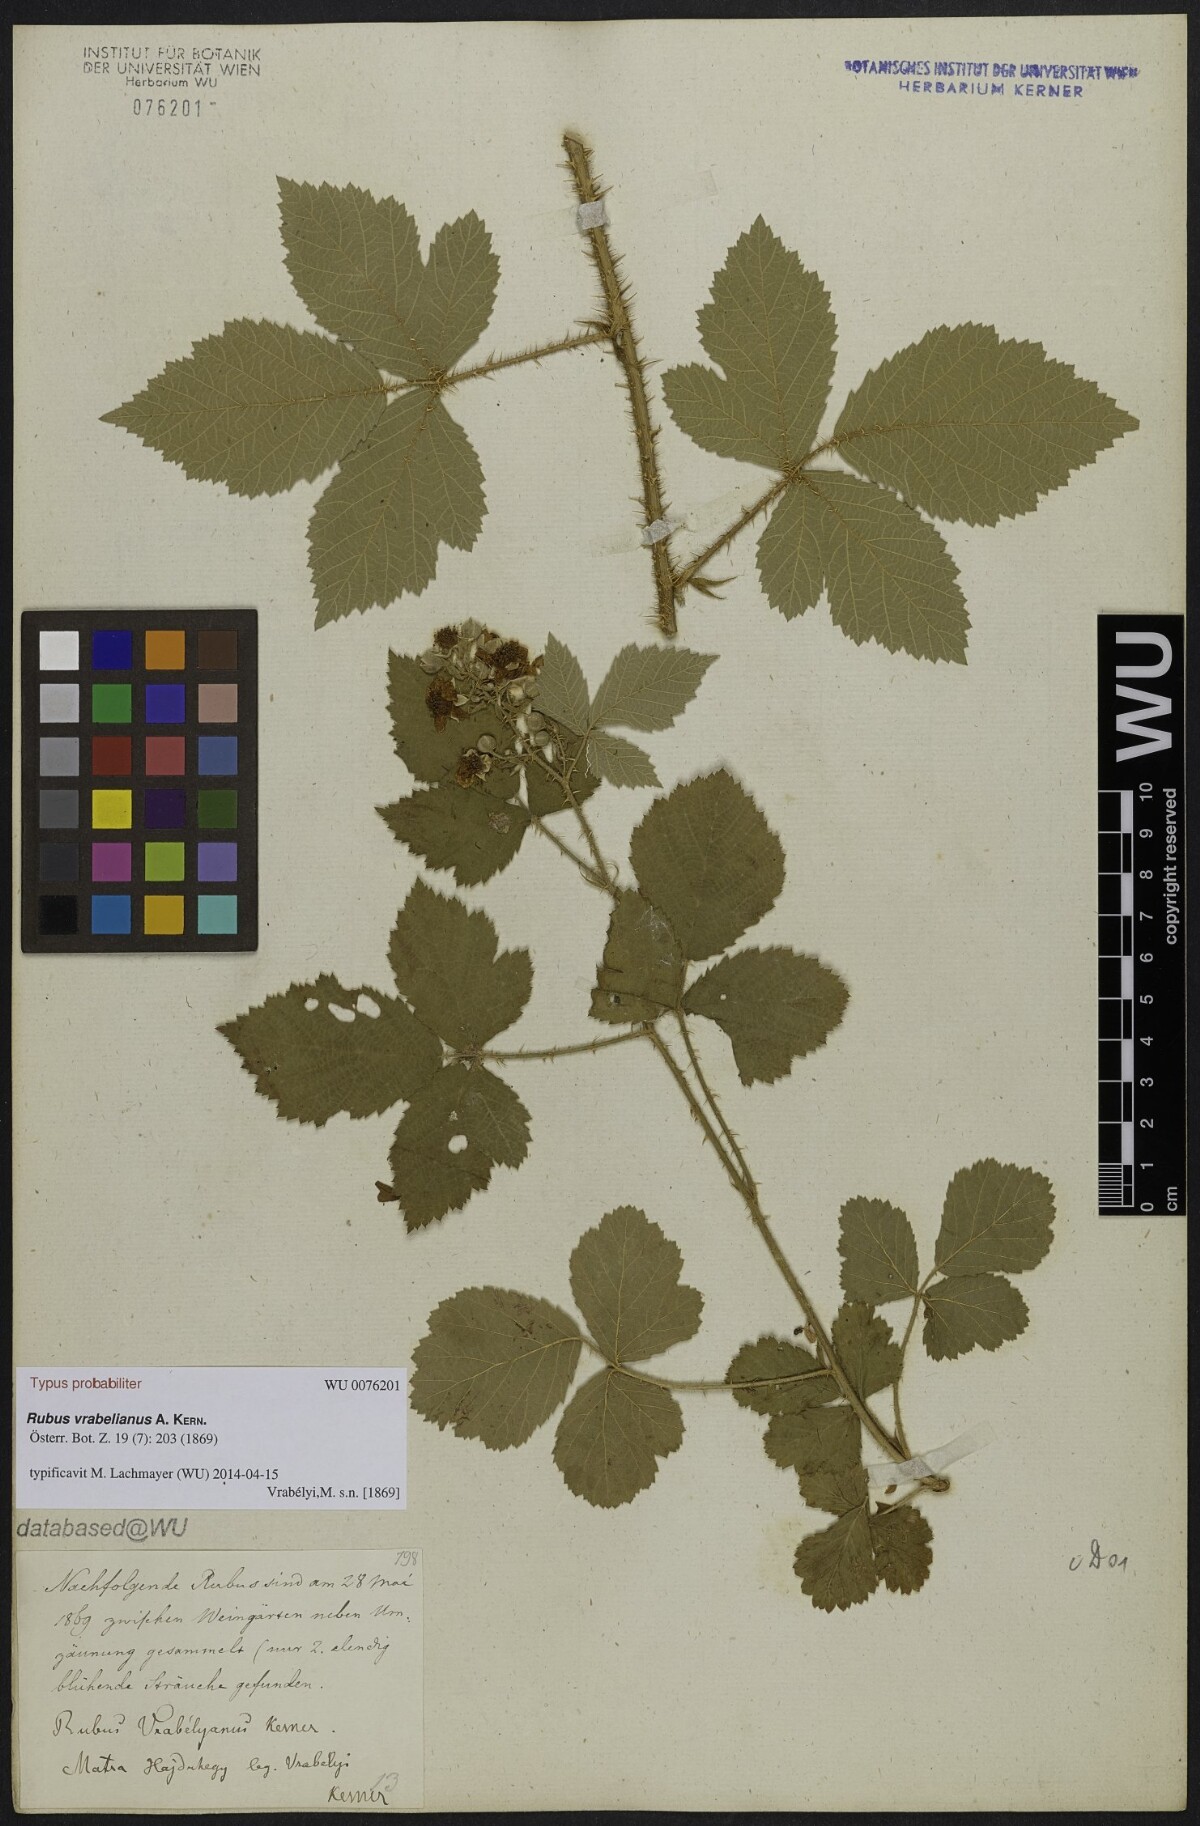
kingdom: Plantae
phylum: Tracheophyta
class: Magnoliopsida
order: Rosales
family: Rosaceae
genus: Rubus
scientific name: Rubus vrabelianus
